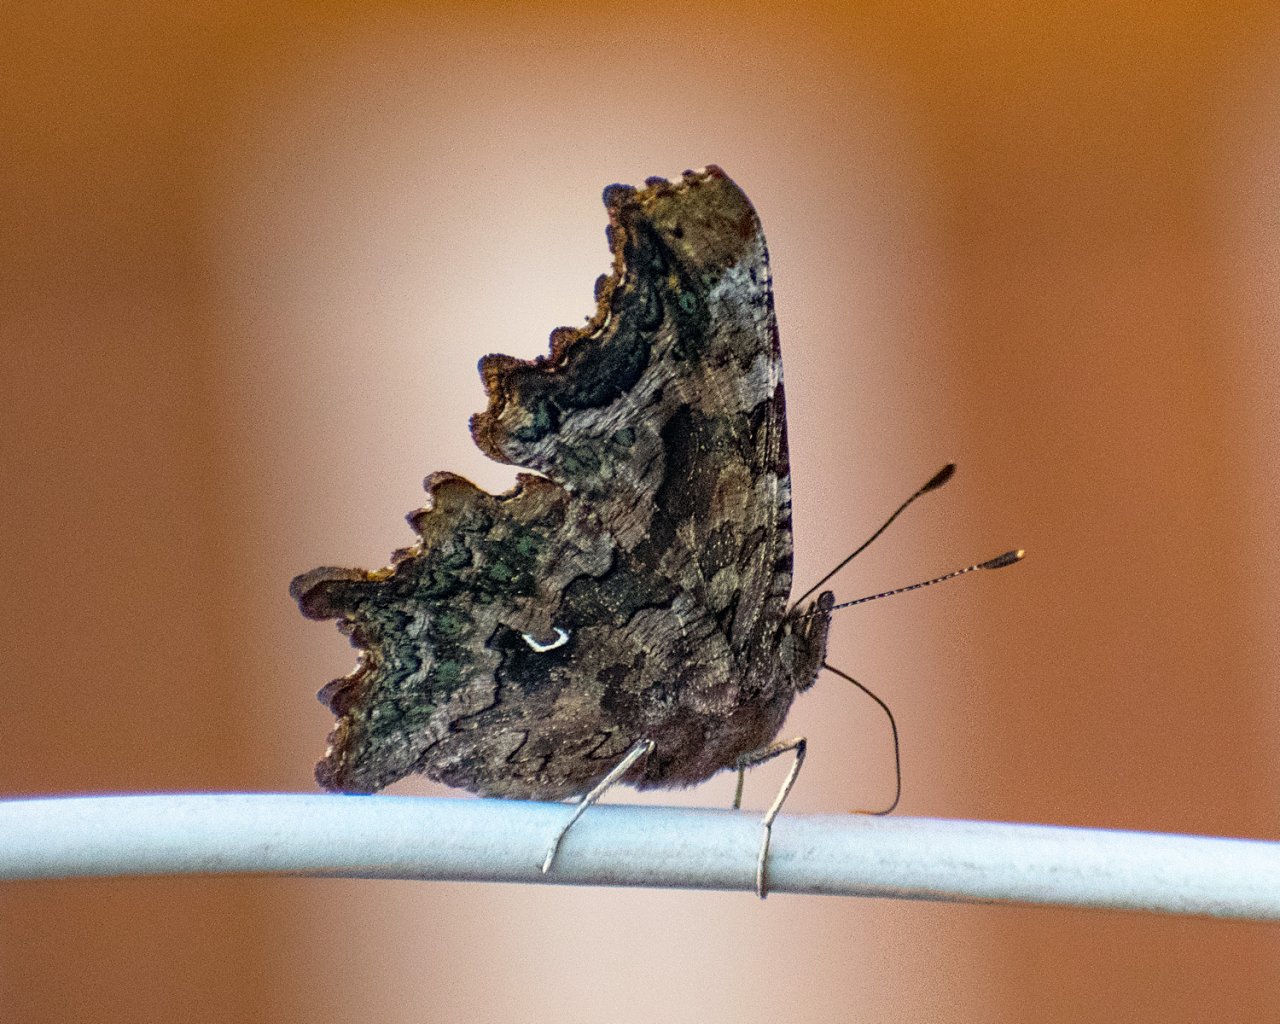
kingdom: Animalia
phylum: Arthropoda
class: Insecta
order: Lepidoptera
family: Nymphalidae
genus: Polygonia
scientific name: Polygonia faunus
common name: Green Comma
